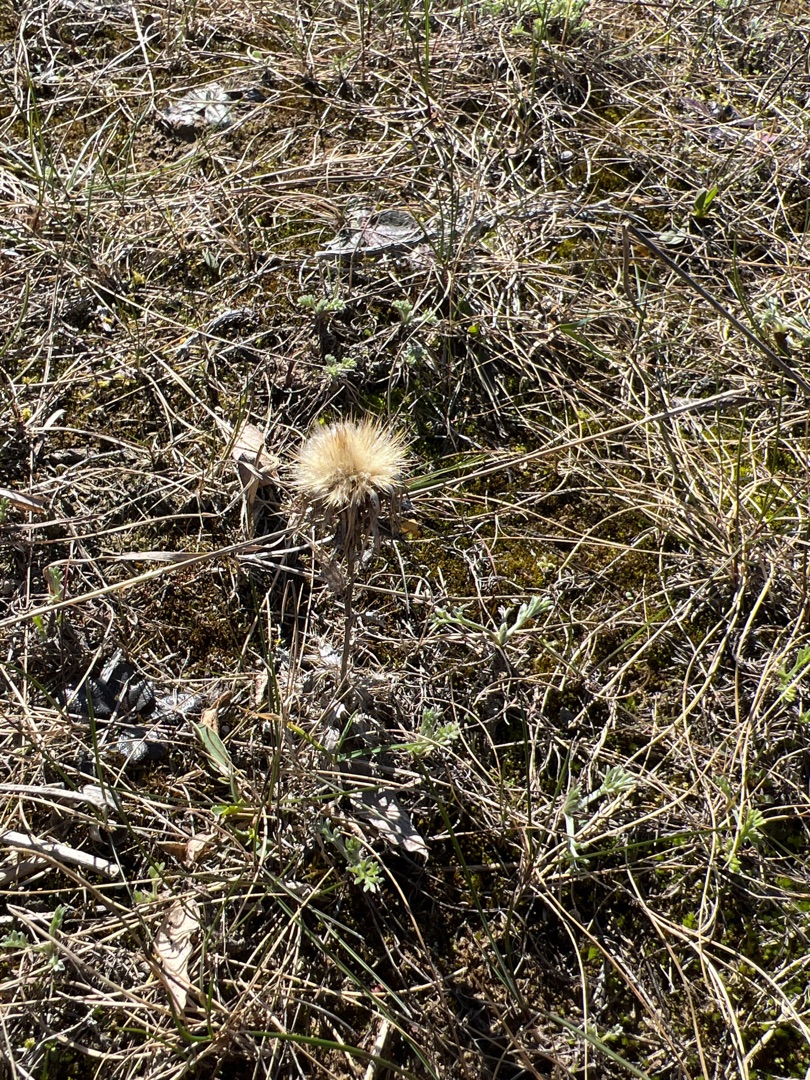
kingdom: Plantae
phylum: Tracheophyta
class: Magnoliopsida
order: Asterales
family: Asteraceae
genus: Carlina
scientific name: Carlina vulgaris
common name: Bakketidsel
